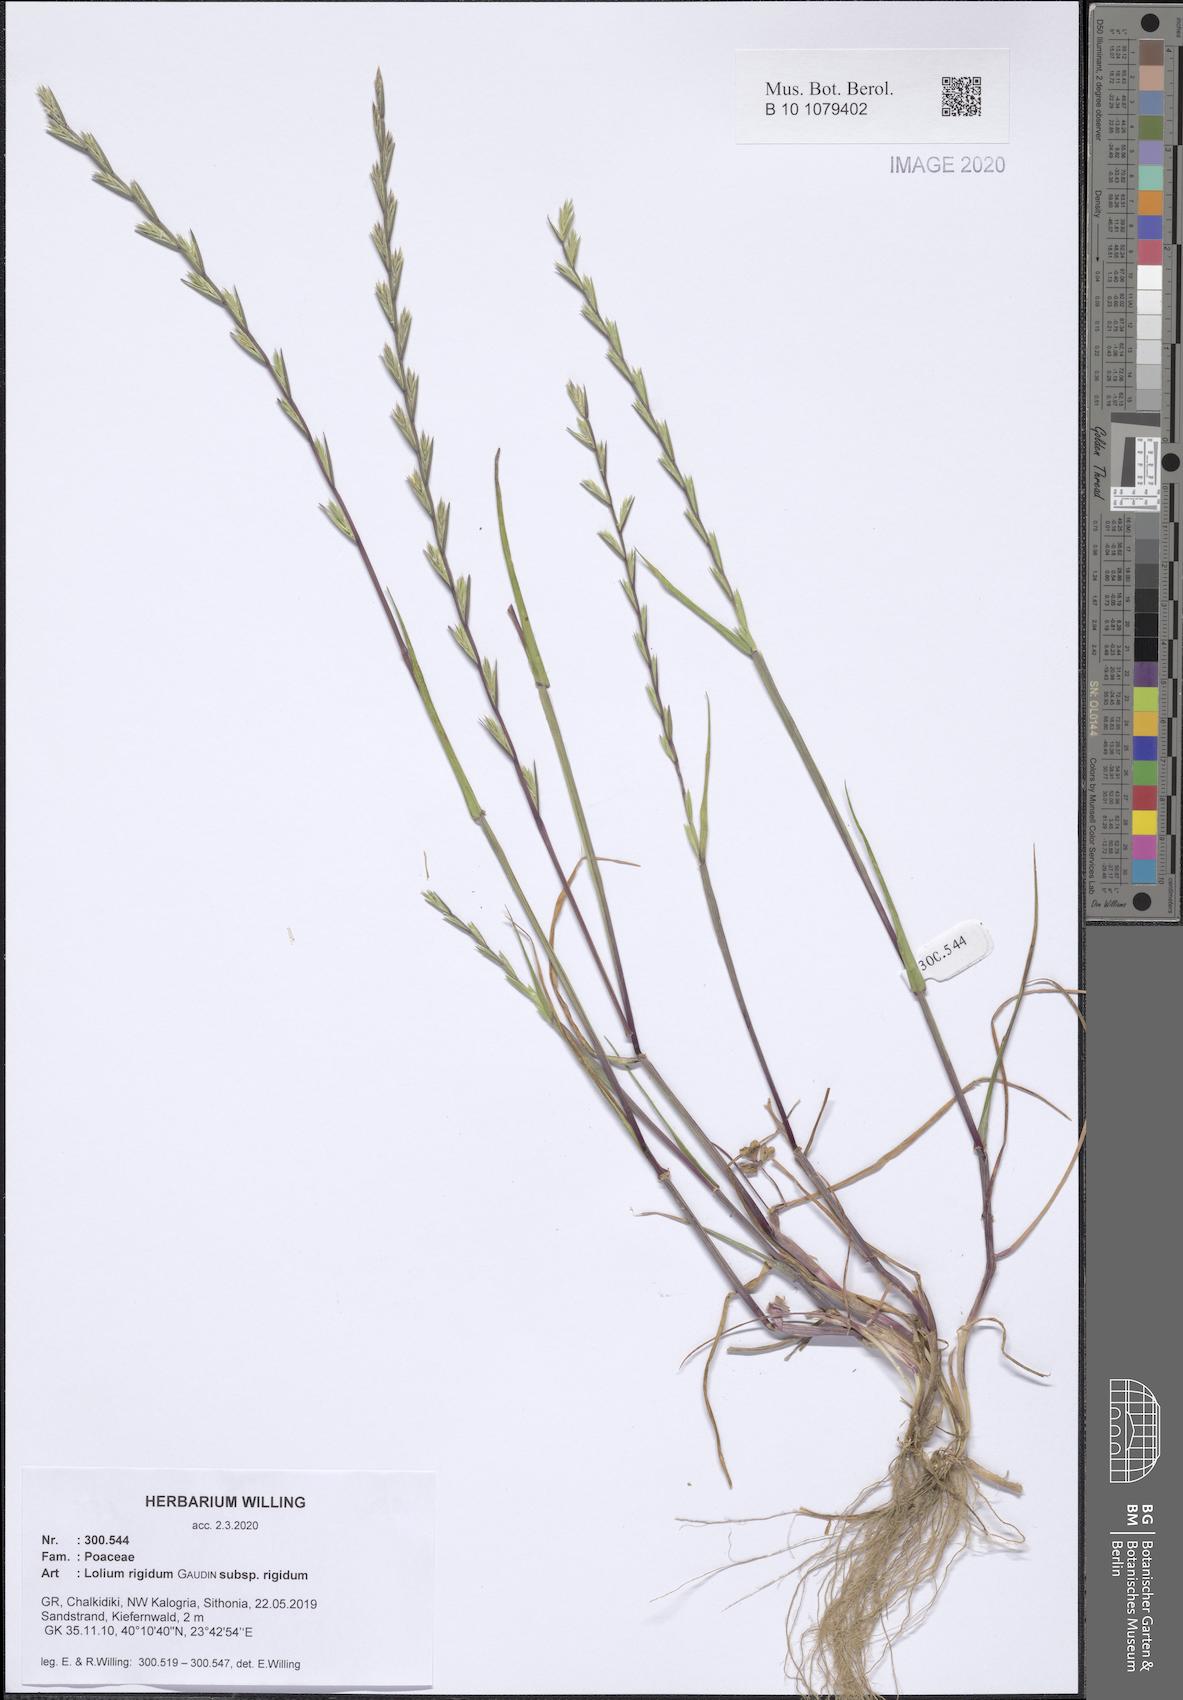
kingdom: Plantae
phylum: Tracheophyta
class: Liliopsida
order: Poales
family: Poaceae
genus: Lolium
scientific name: Lolium rigidum
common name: Wimmera ryegrass
